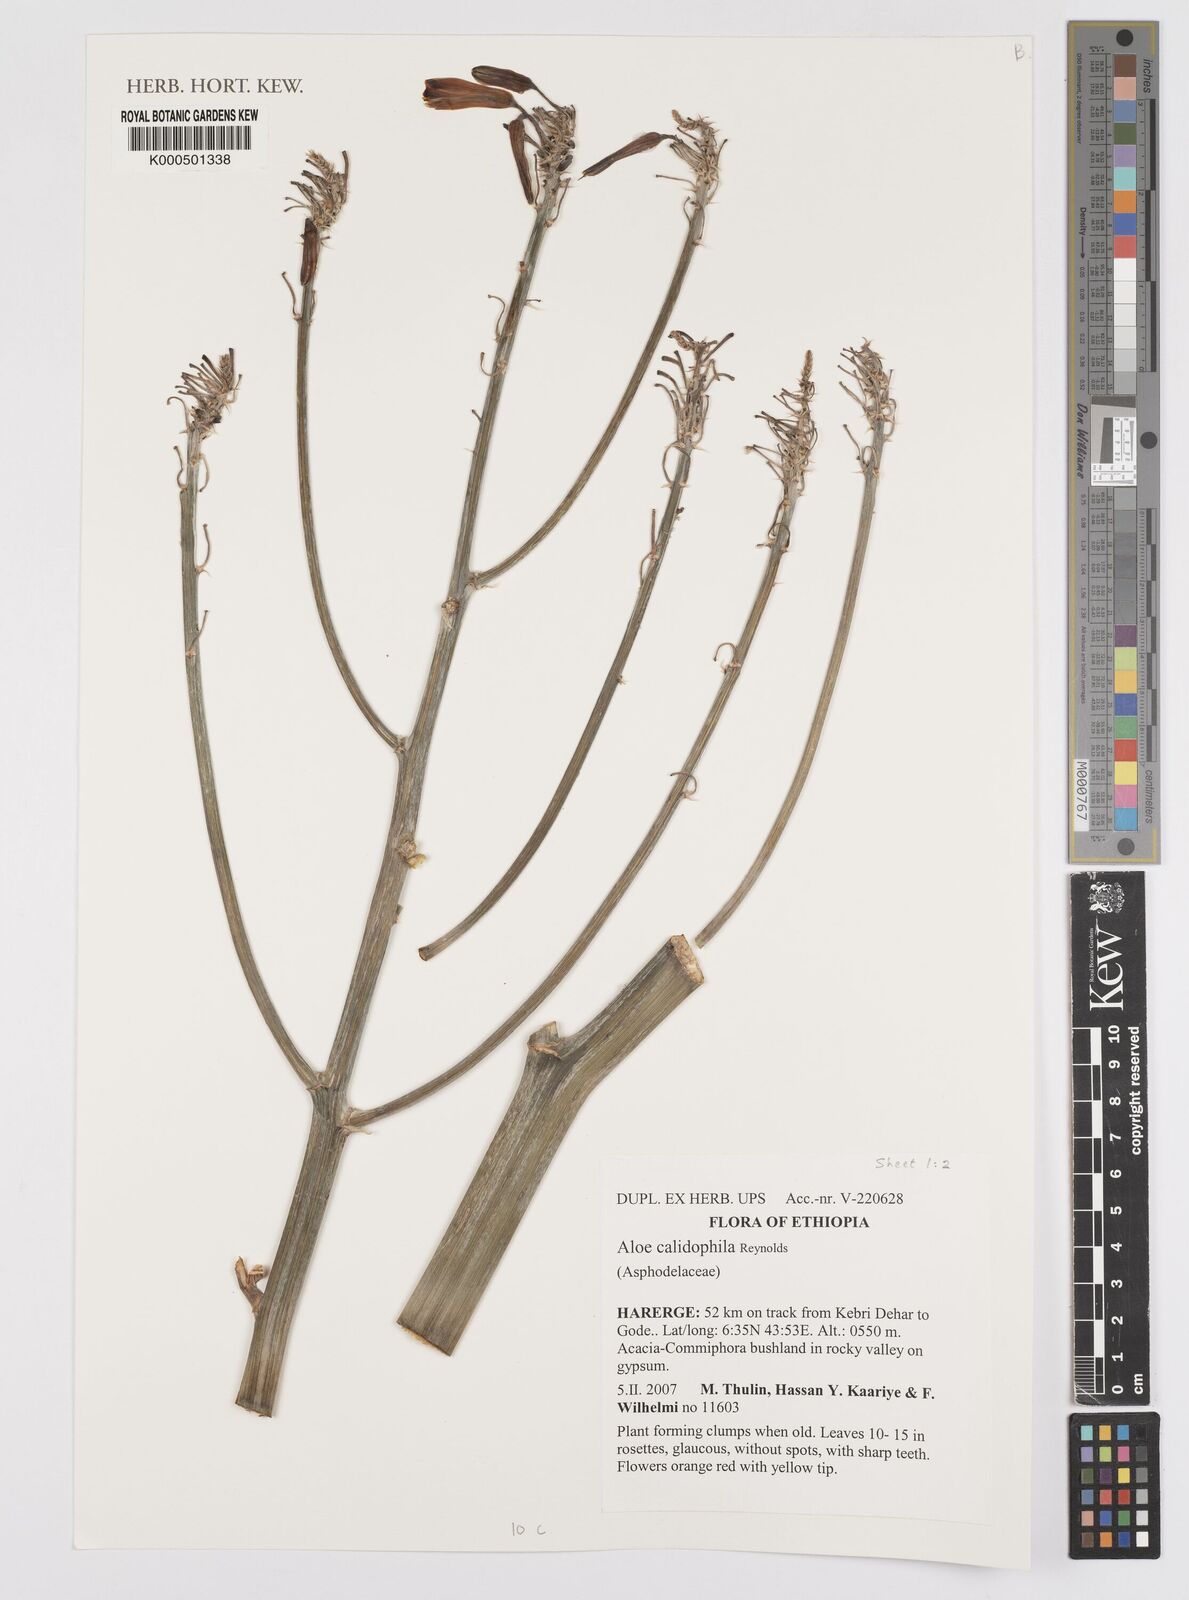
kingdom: Plantae
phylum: Tracheophyta
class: Liliopsida
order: Asparagales
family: Asphodelaceae
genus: Aloe
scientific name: Aloe calidophila
